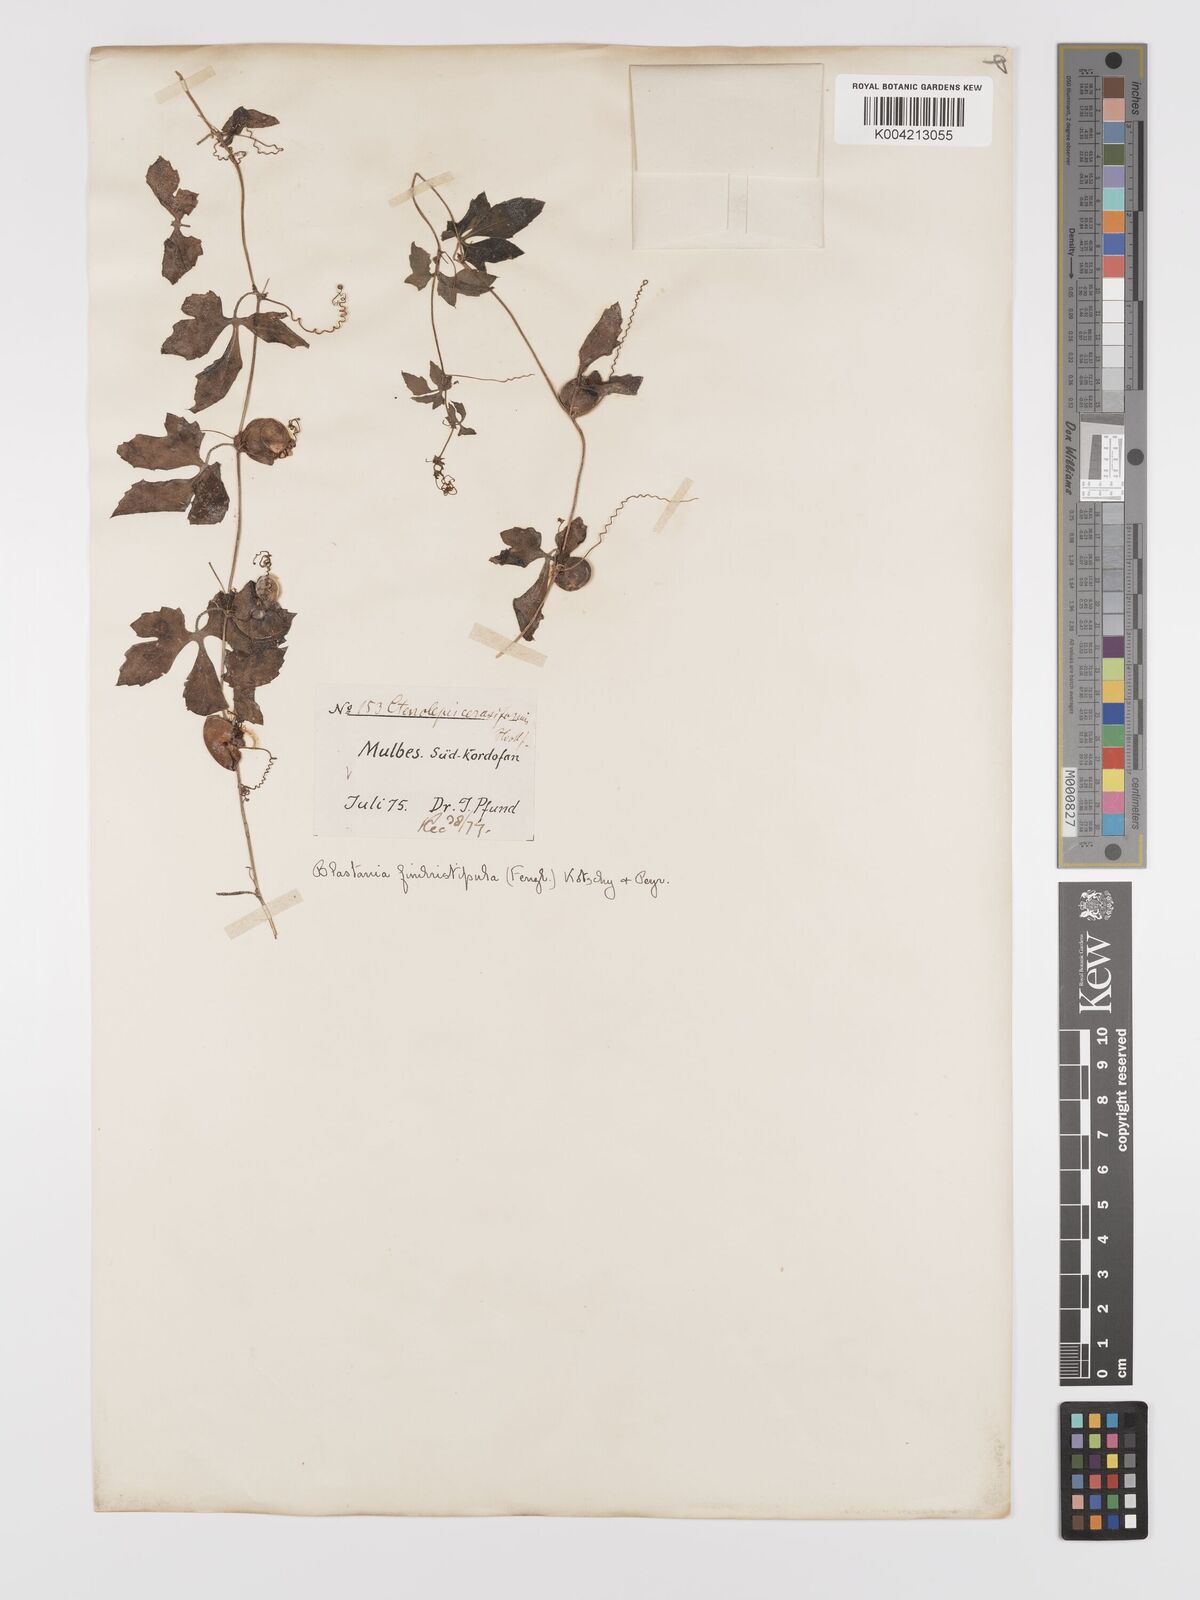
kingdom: Plantae
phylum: Tracheophyta
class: Magnoliopsida
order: Cucurbitales
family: Cucurbitaceae
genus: Blastania
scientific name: Blastania cerasiformis
